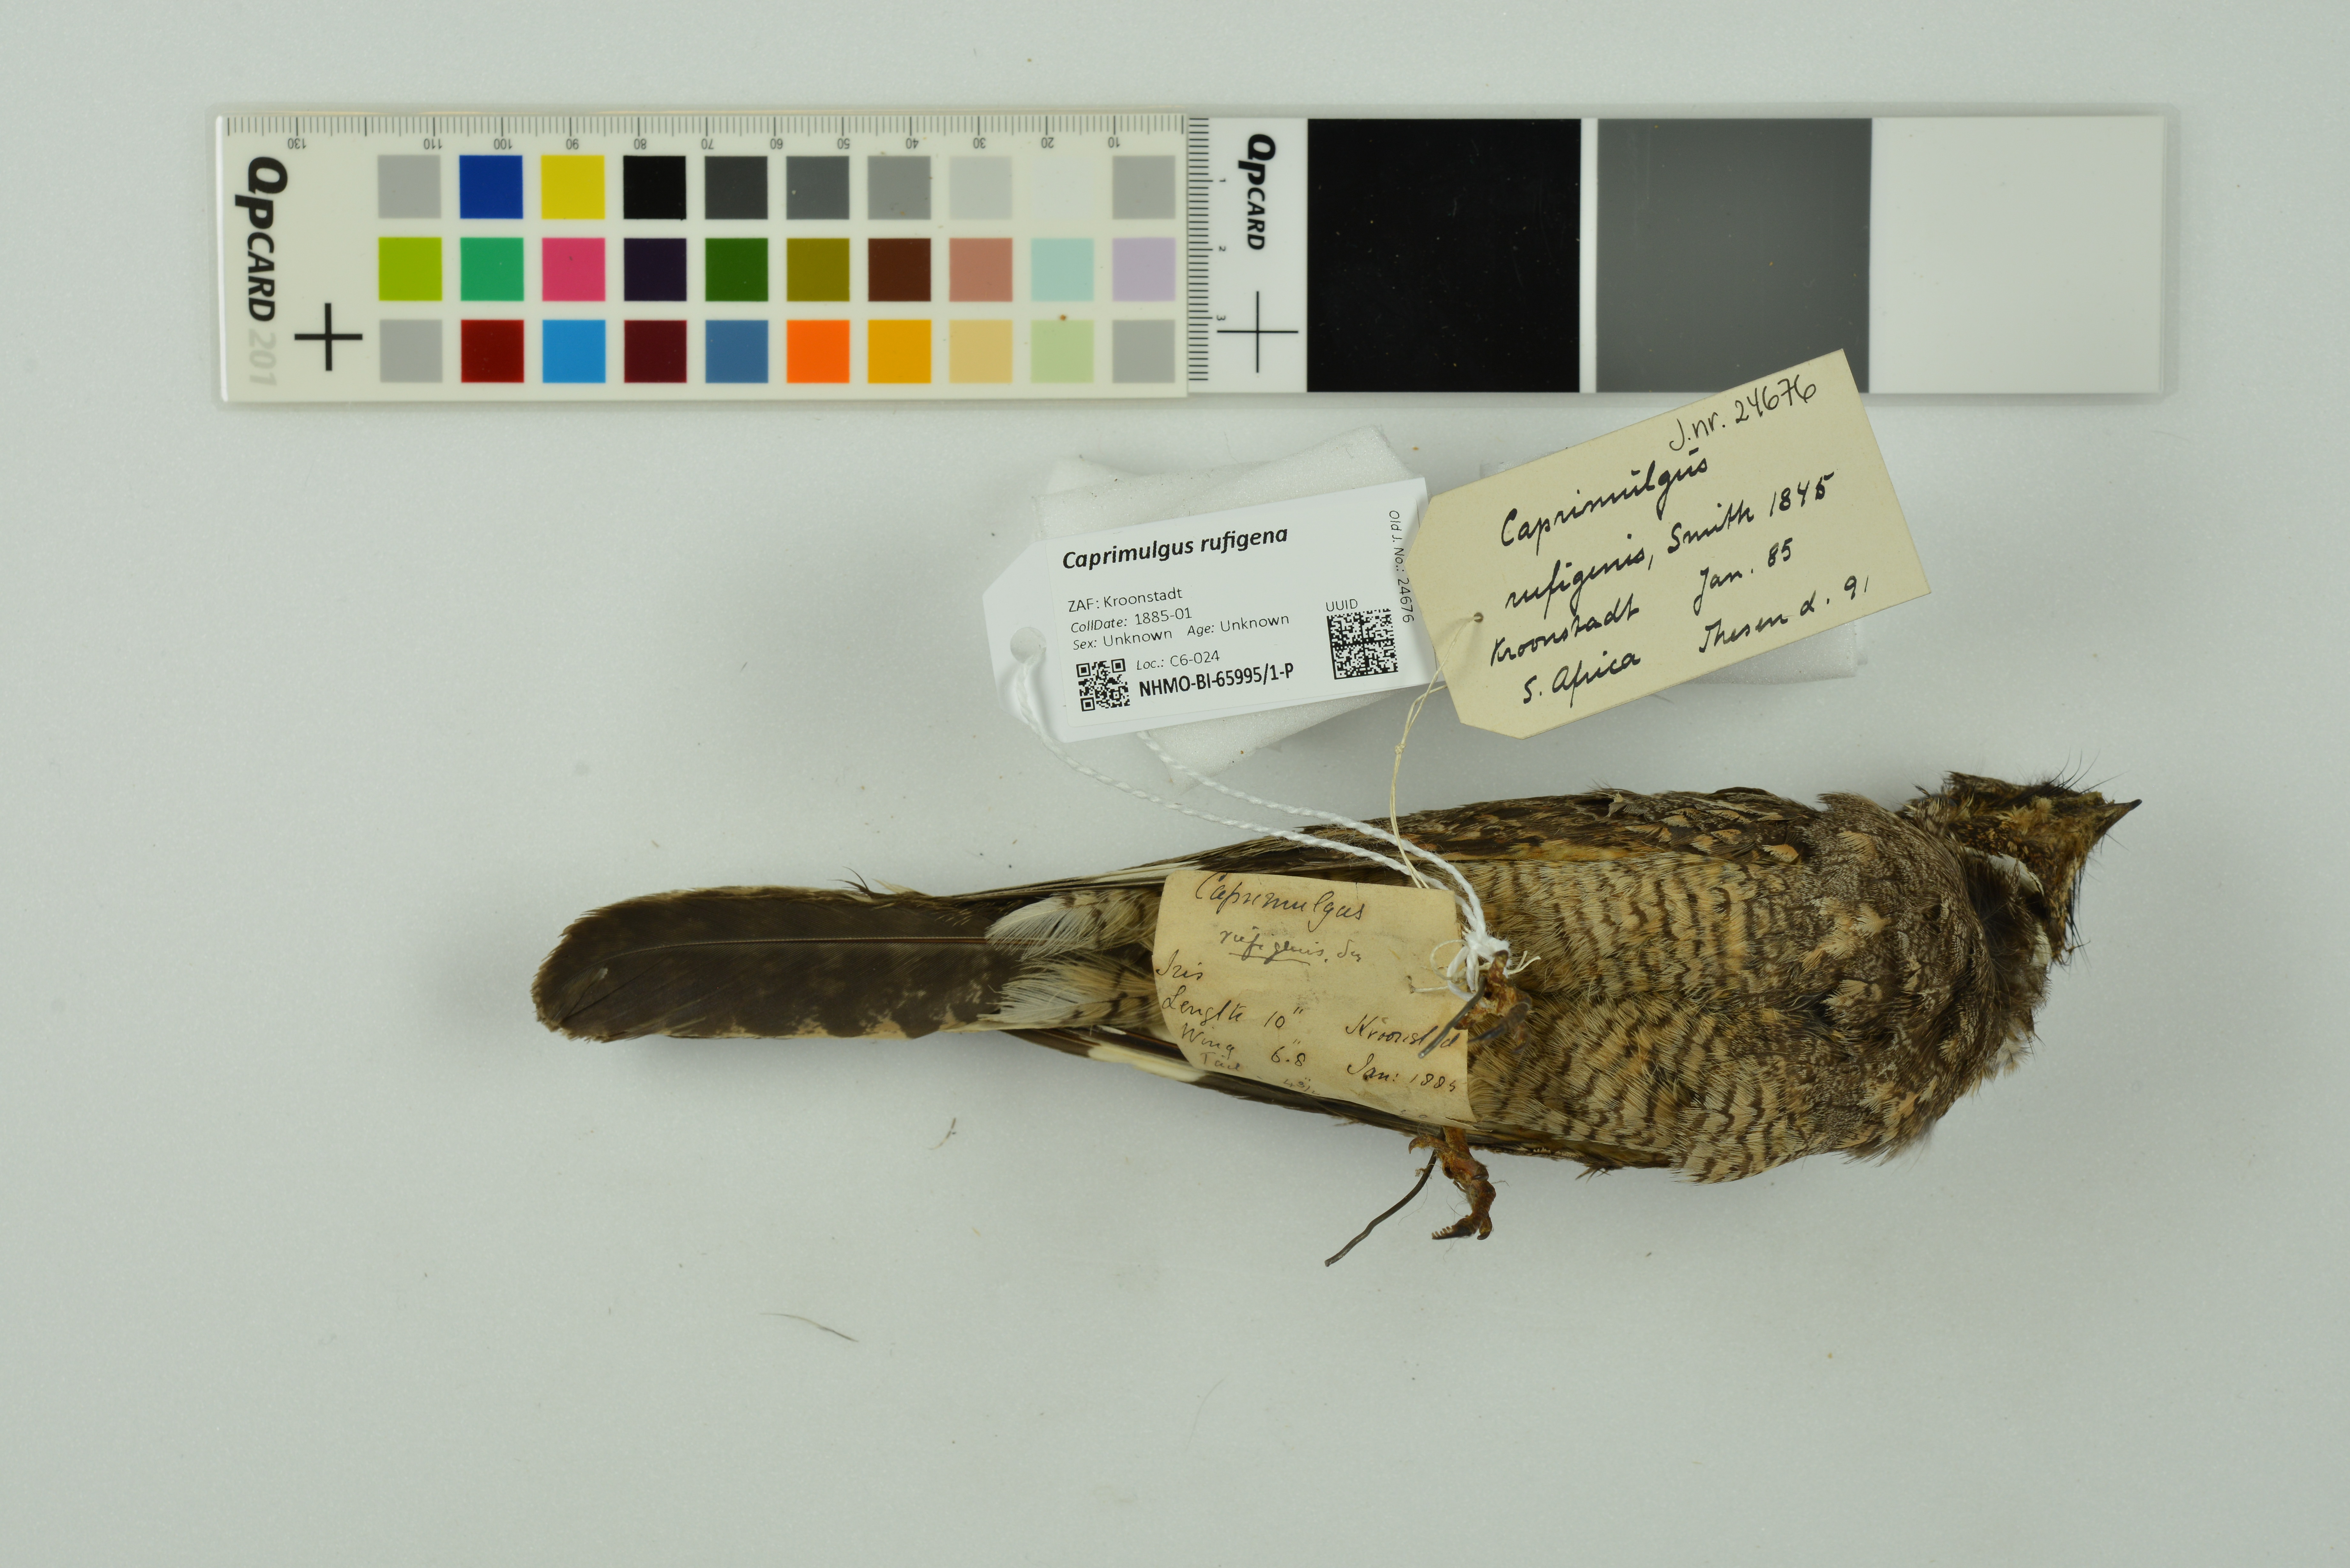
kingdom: Animalia
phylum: Chordata
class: Aves
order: Caprimulgiformes
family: Caprimulgidae
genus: Caprimulgus
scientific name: Caprimulgus rufigena
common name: Rufous-cheeked nightjar
